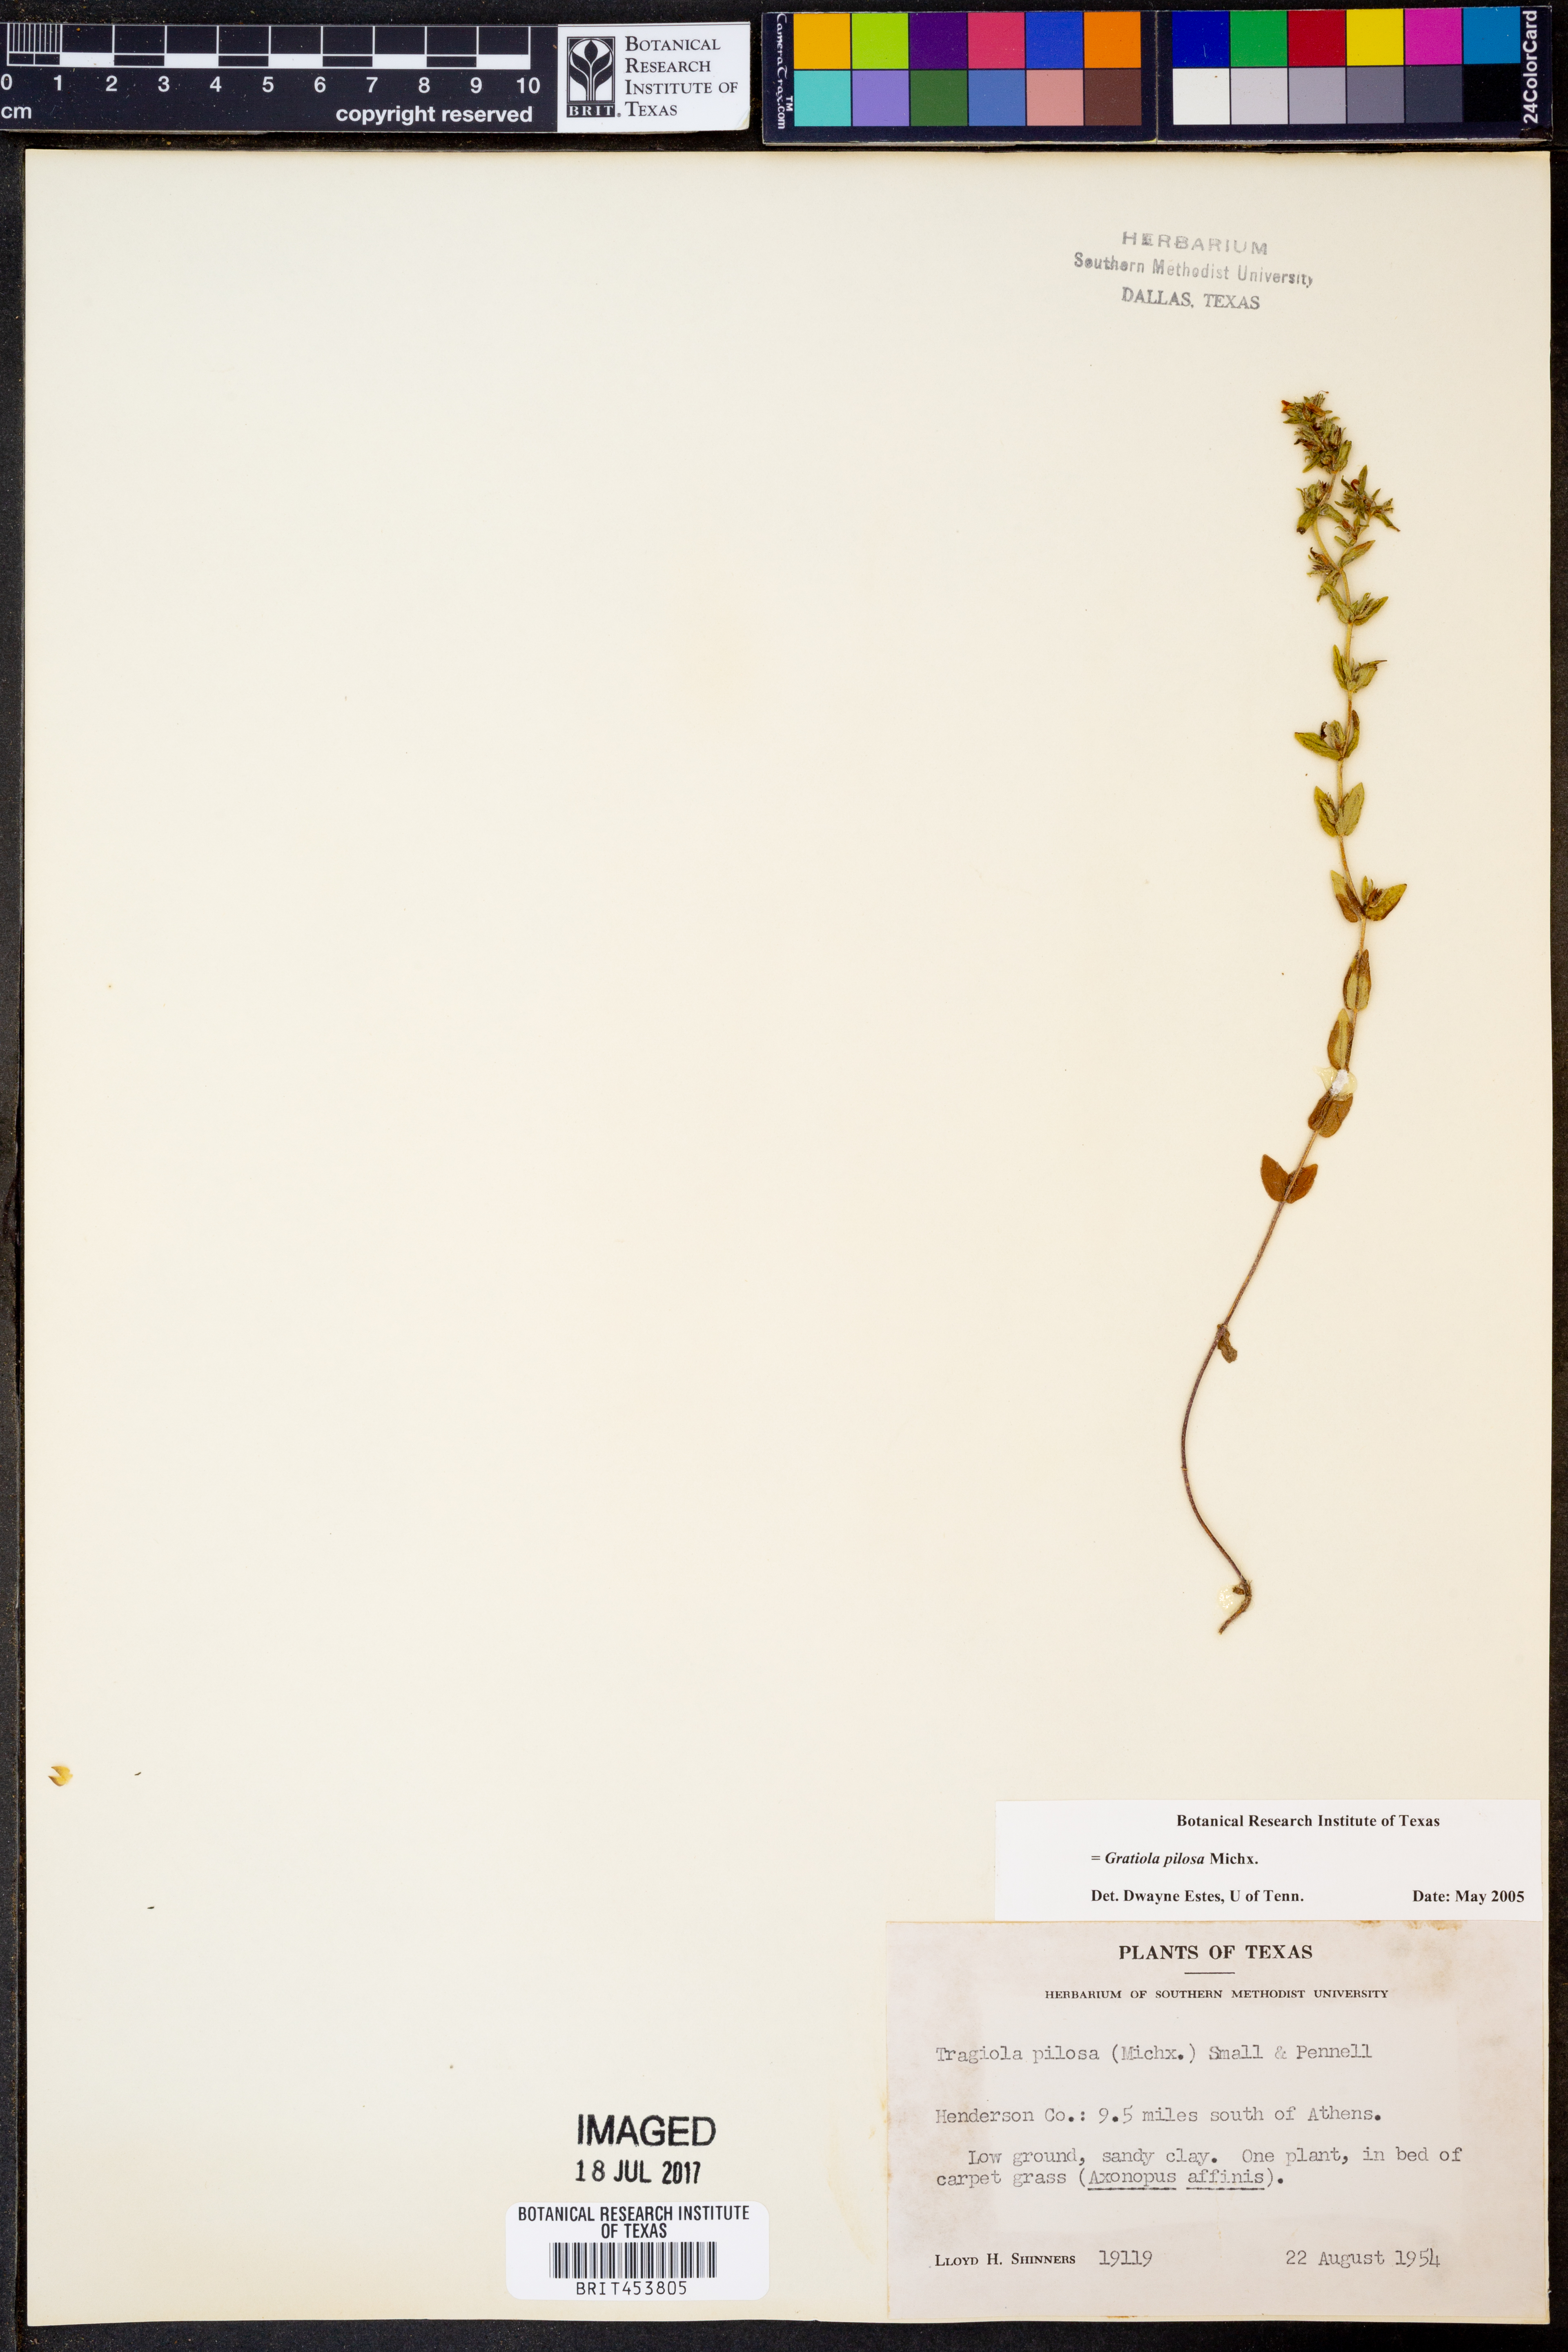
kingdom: Plantae
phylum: Tracheophyta
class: Magnoliopsida
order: Lamiales
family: Plantaginaceae
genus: Gratiola
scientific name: Gratiola pilosa
